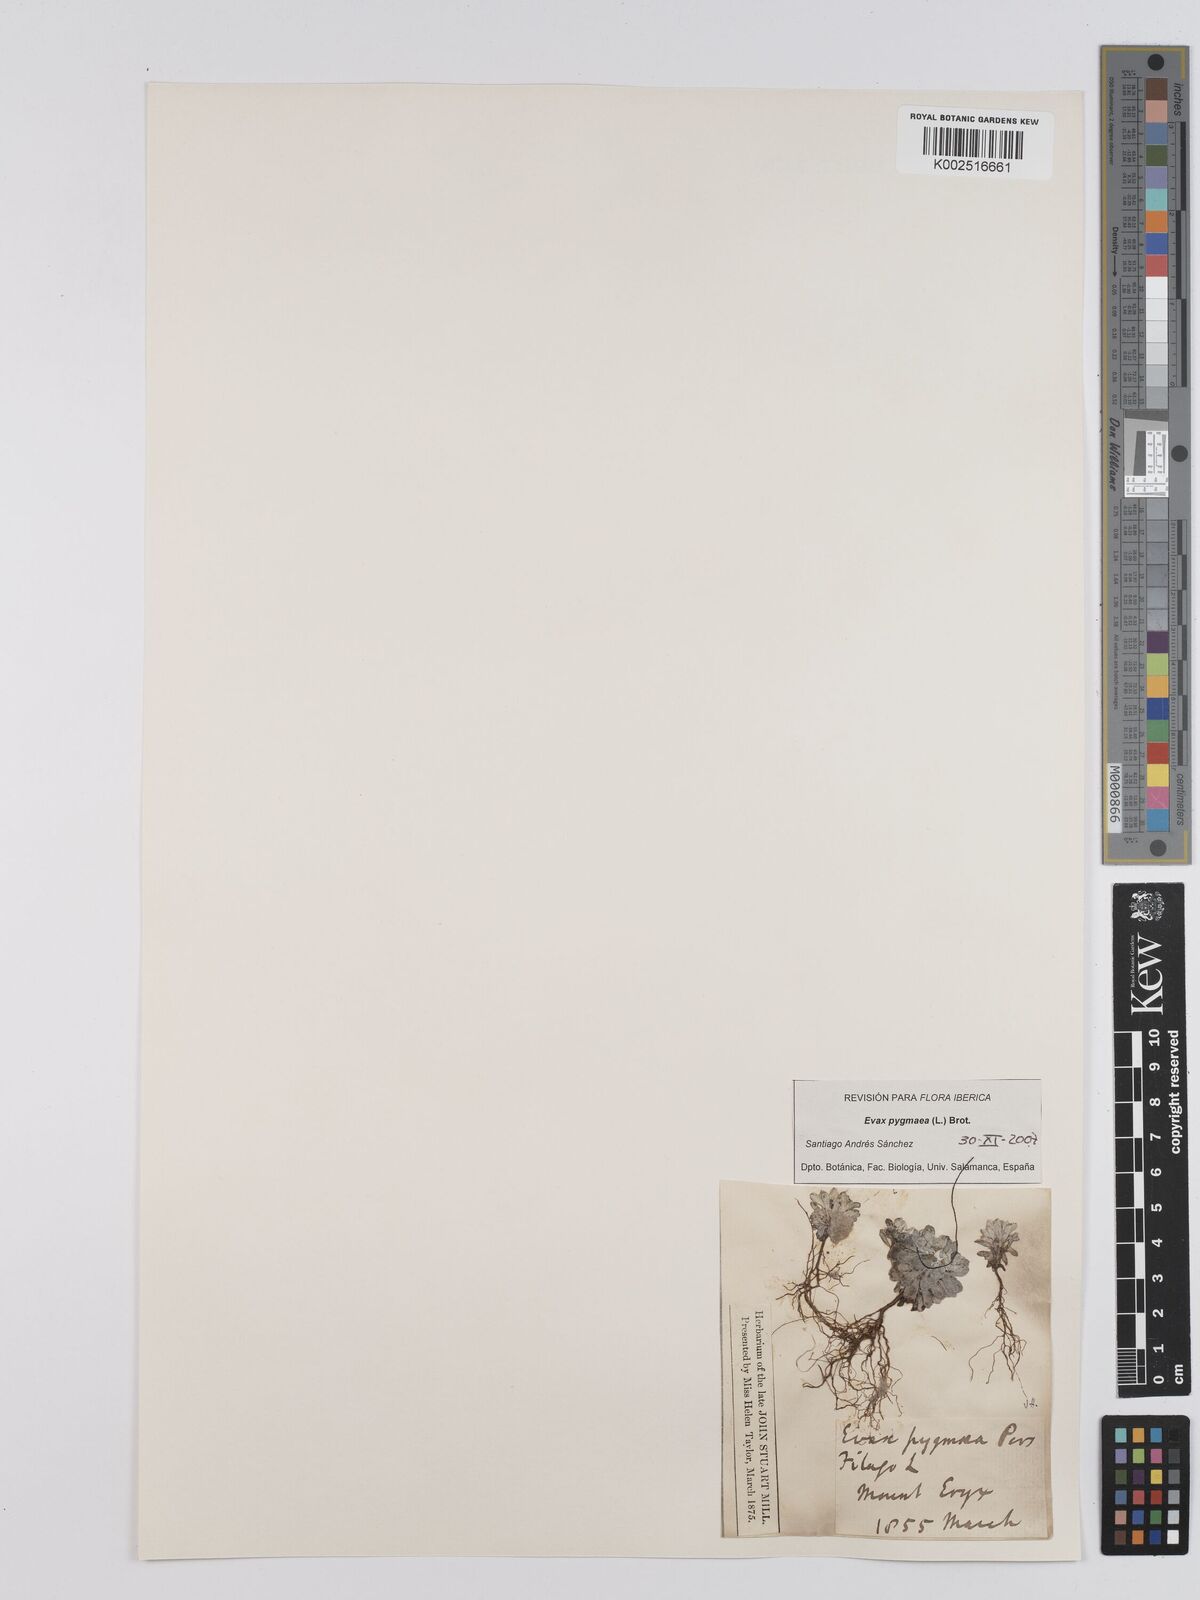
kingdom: Plantae
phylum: Tracheophyta
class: Magnoliopsida
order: Asterales
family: Asteraceae
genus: Filago
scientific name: Filago pygmaea
